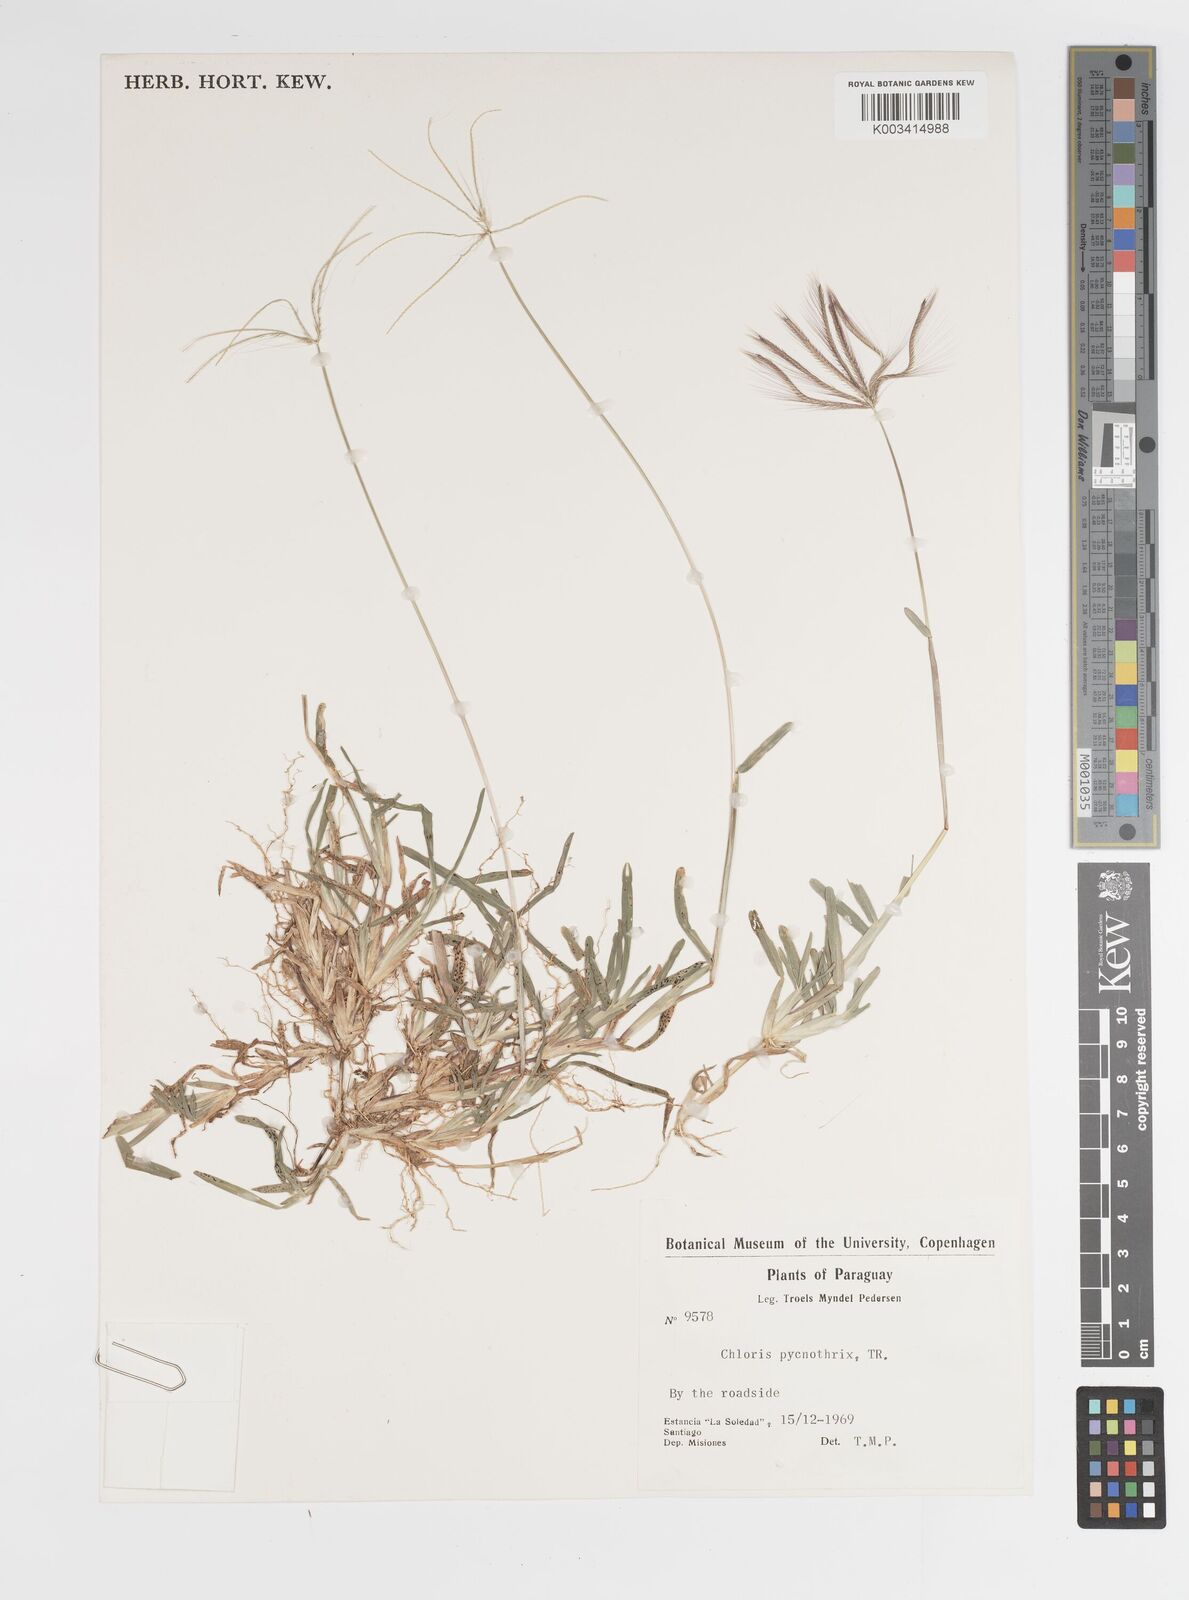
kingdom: Plantae
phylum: Tracheophyta
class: Liliopsida
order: Poales
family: Poaceae
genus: Chloris
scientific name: Chloris pycnothrix
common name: Spiderweb chloris
